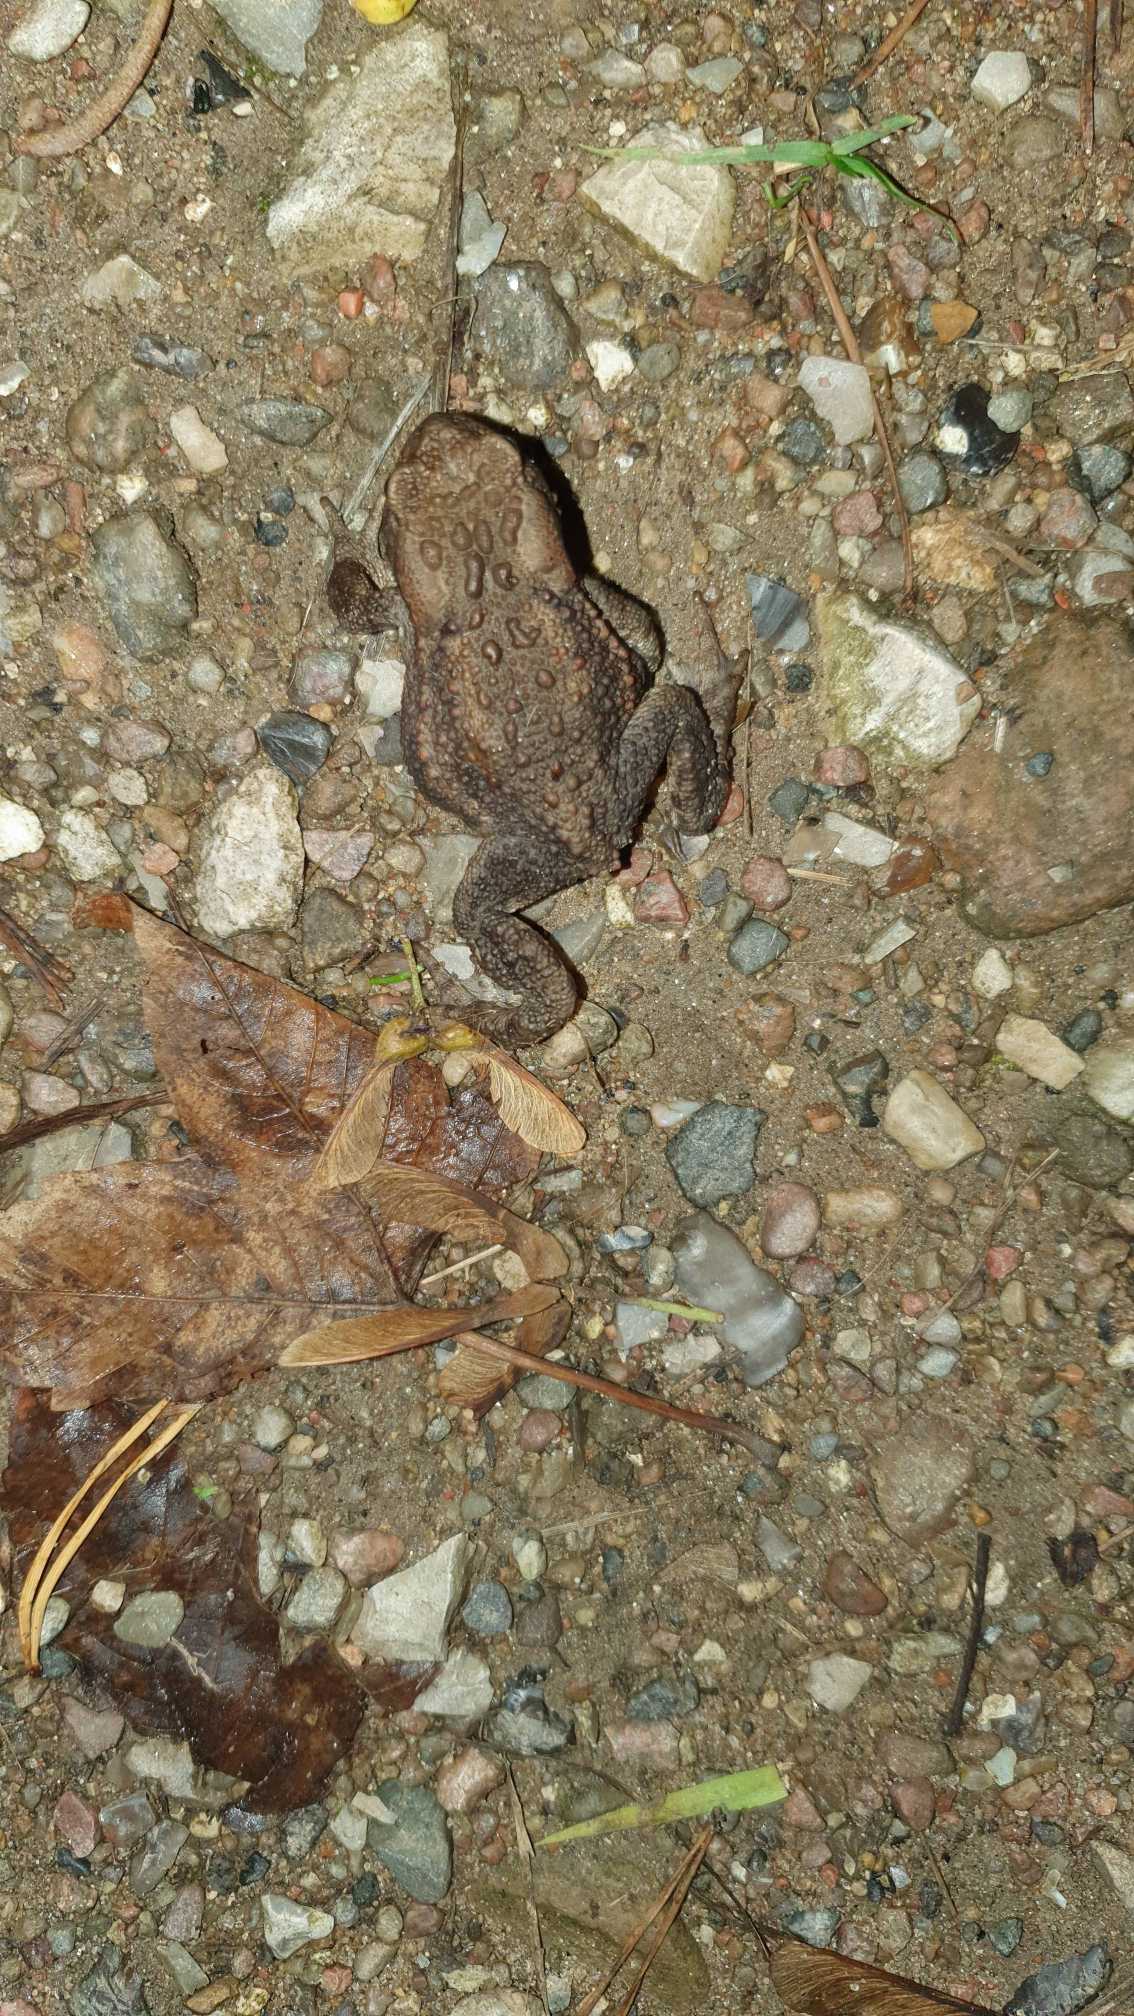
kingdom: Animalia
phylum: Chordata
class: Amphibia
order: Anura
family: Bufonidae
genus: Bufo
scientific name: Bufo bufo
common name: Skrubtudse
